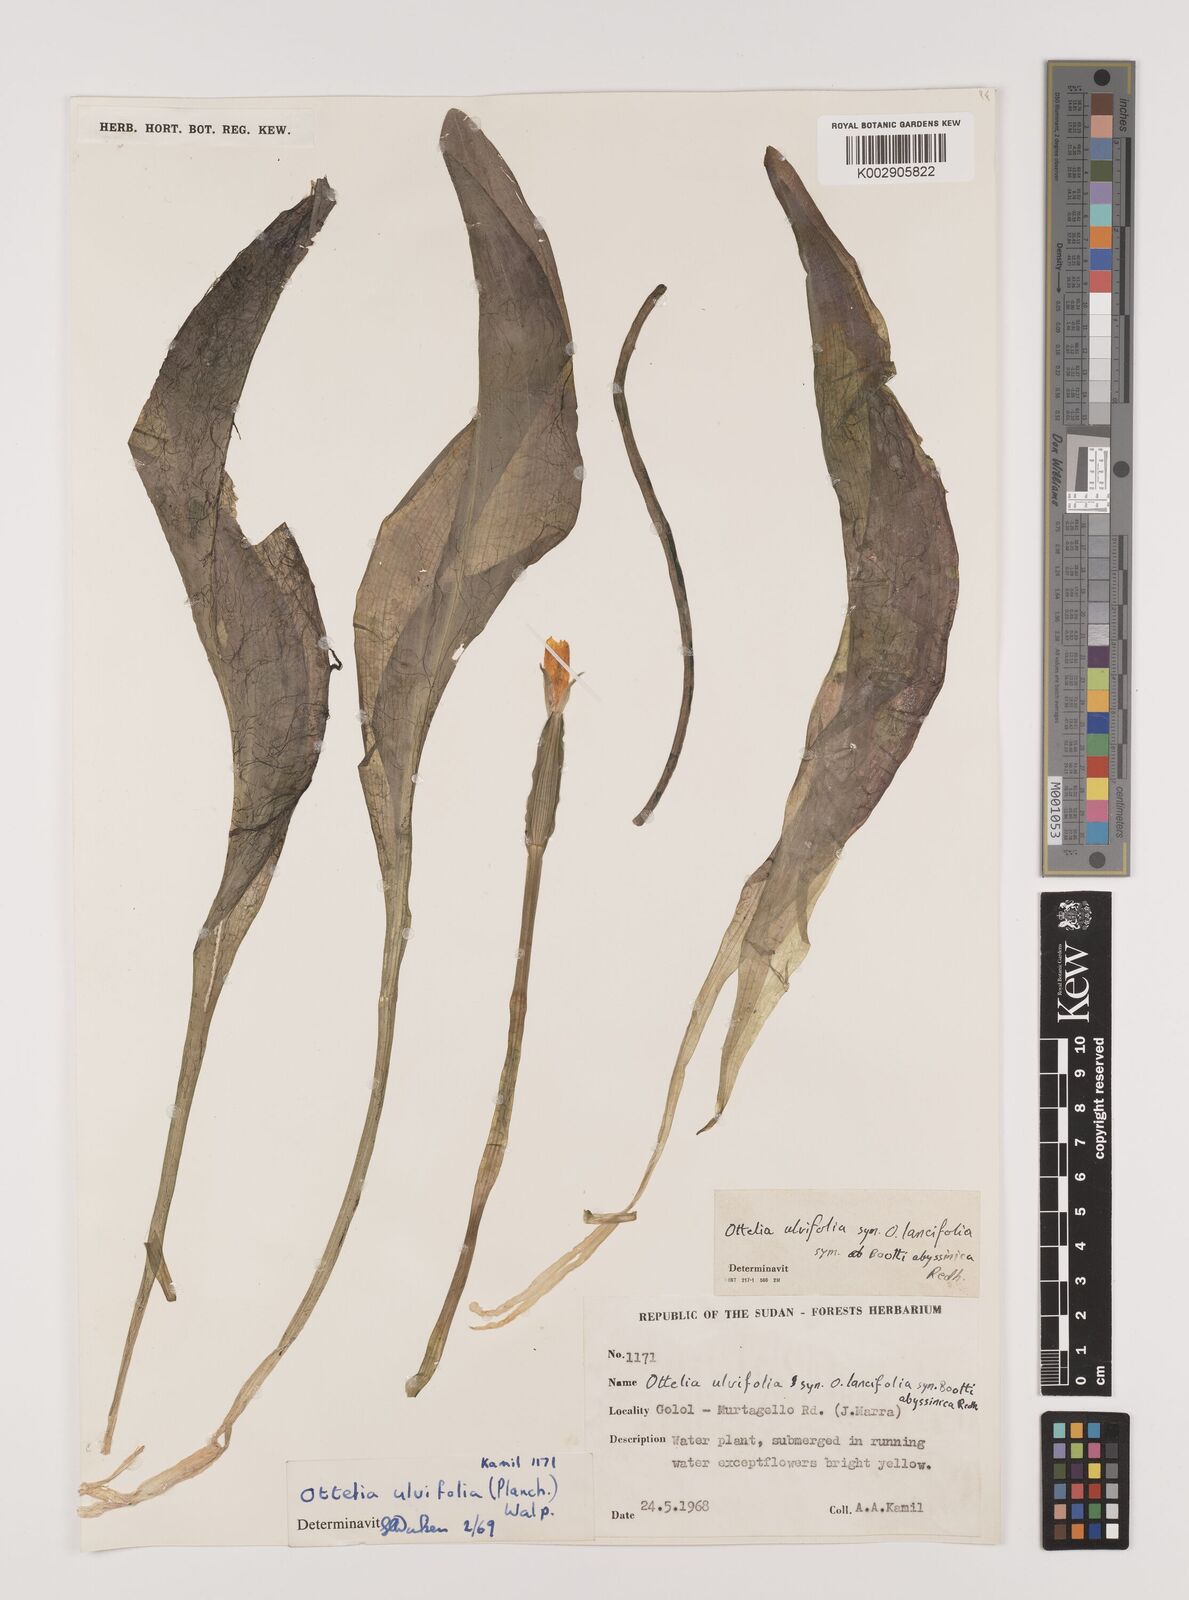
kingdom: Plantae
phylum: Tracheophyta
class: Liliopsida
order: Alismatales
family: Hydrocharitaceae
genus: Ottelia
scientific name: Ottelia ulvifolia
